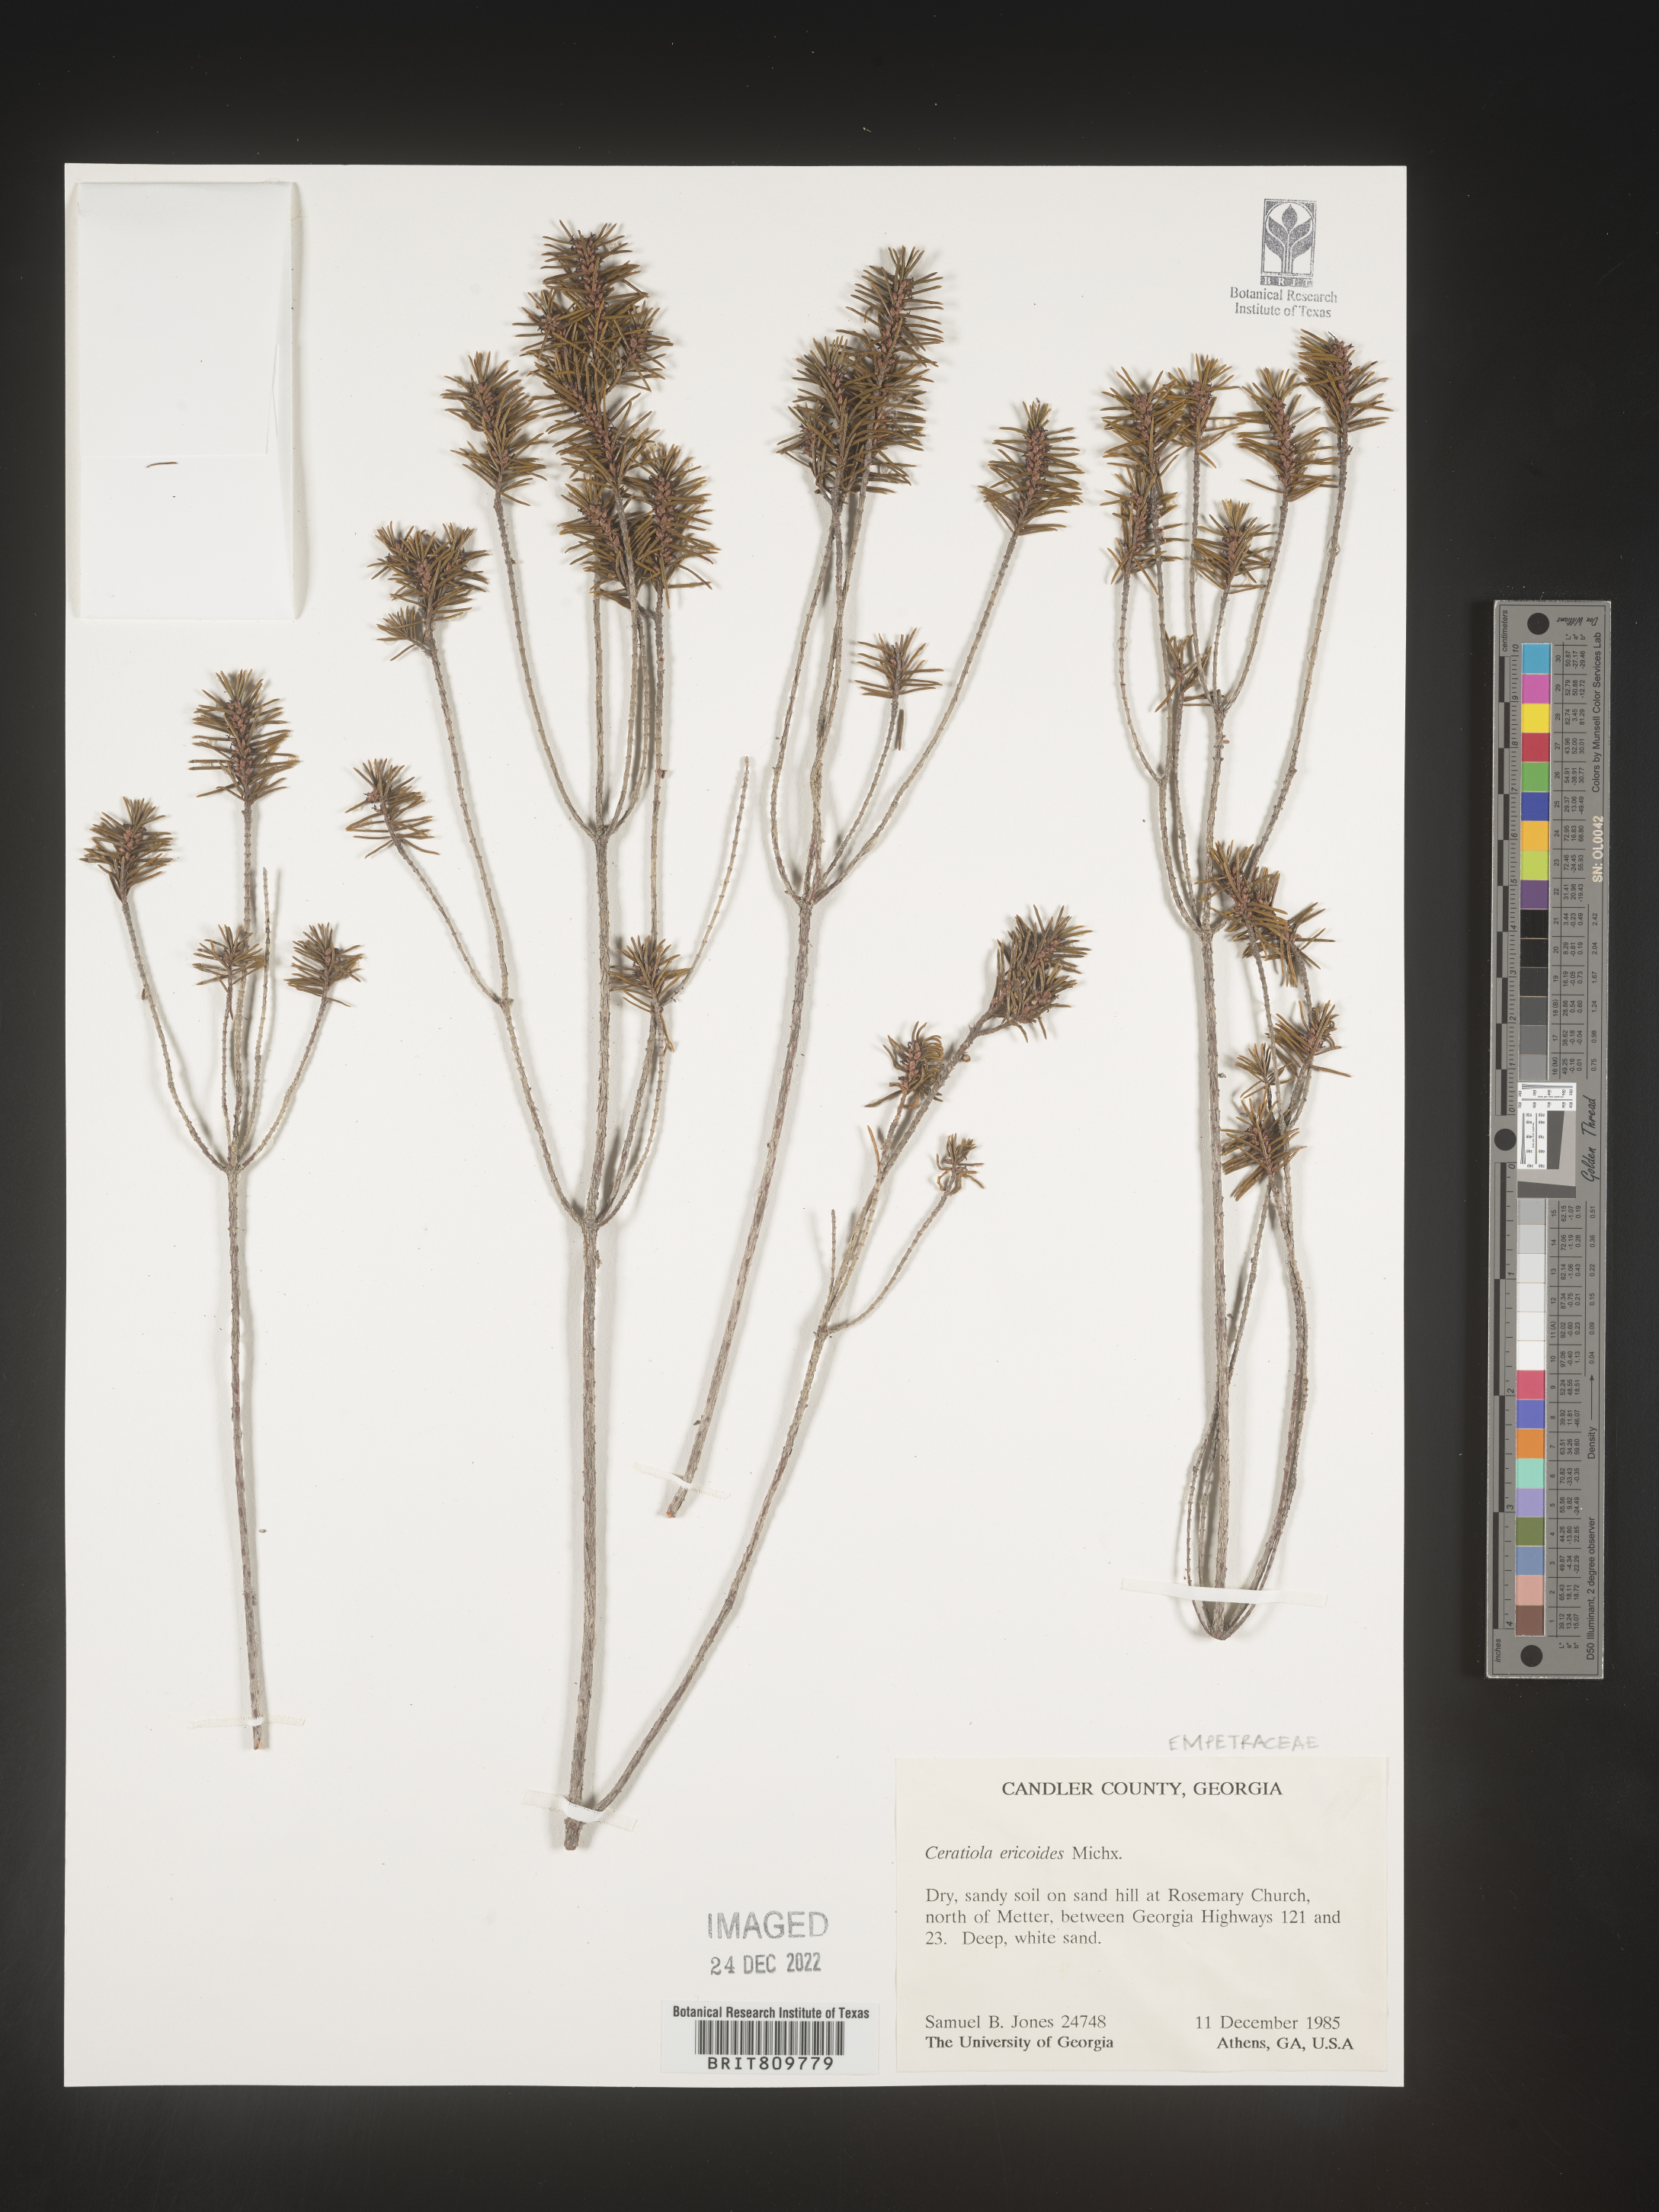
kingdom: Plantae
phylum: Tracheophyta
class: Magnoliopsida
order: Ericales
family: Ericaceae
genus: Ceratiola
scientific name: Ceratiola ericoides
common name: Sandhill-rosemary
